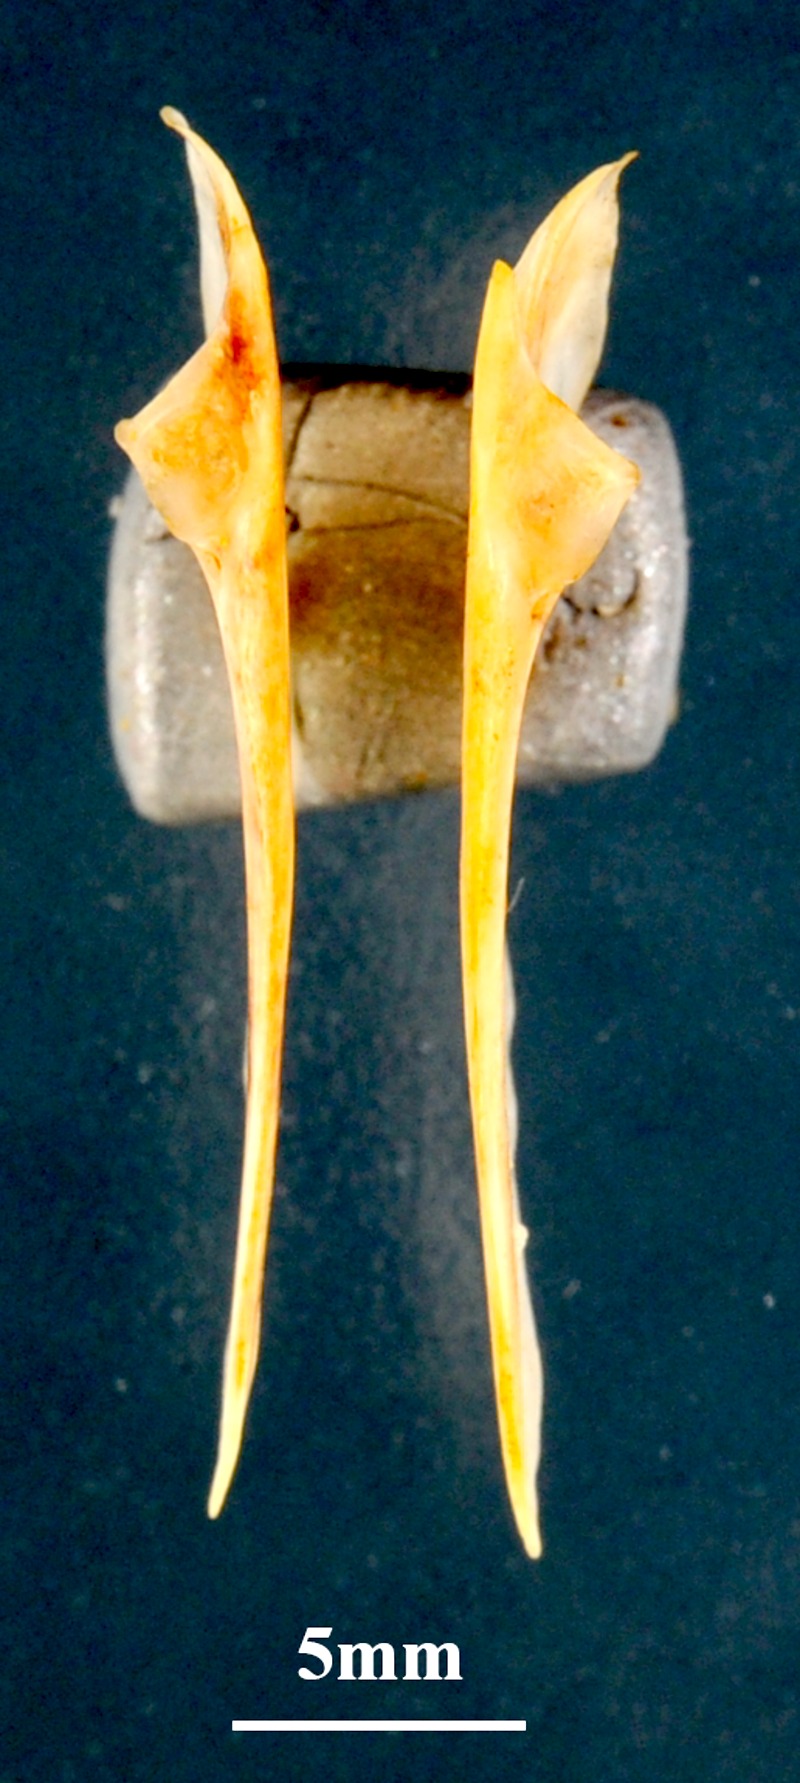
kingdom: Animalia
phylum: Chordata
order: Perciformes
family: Sparidae
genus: Diplodus
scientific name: Diplodus vulgaris
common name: Common two-banded seabream
